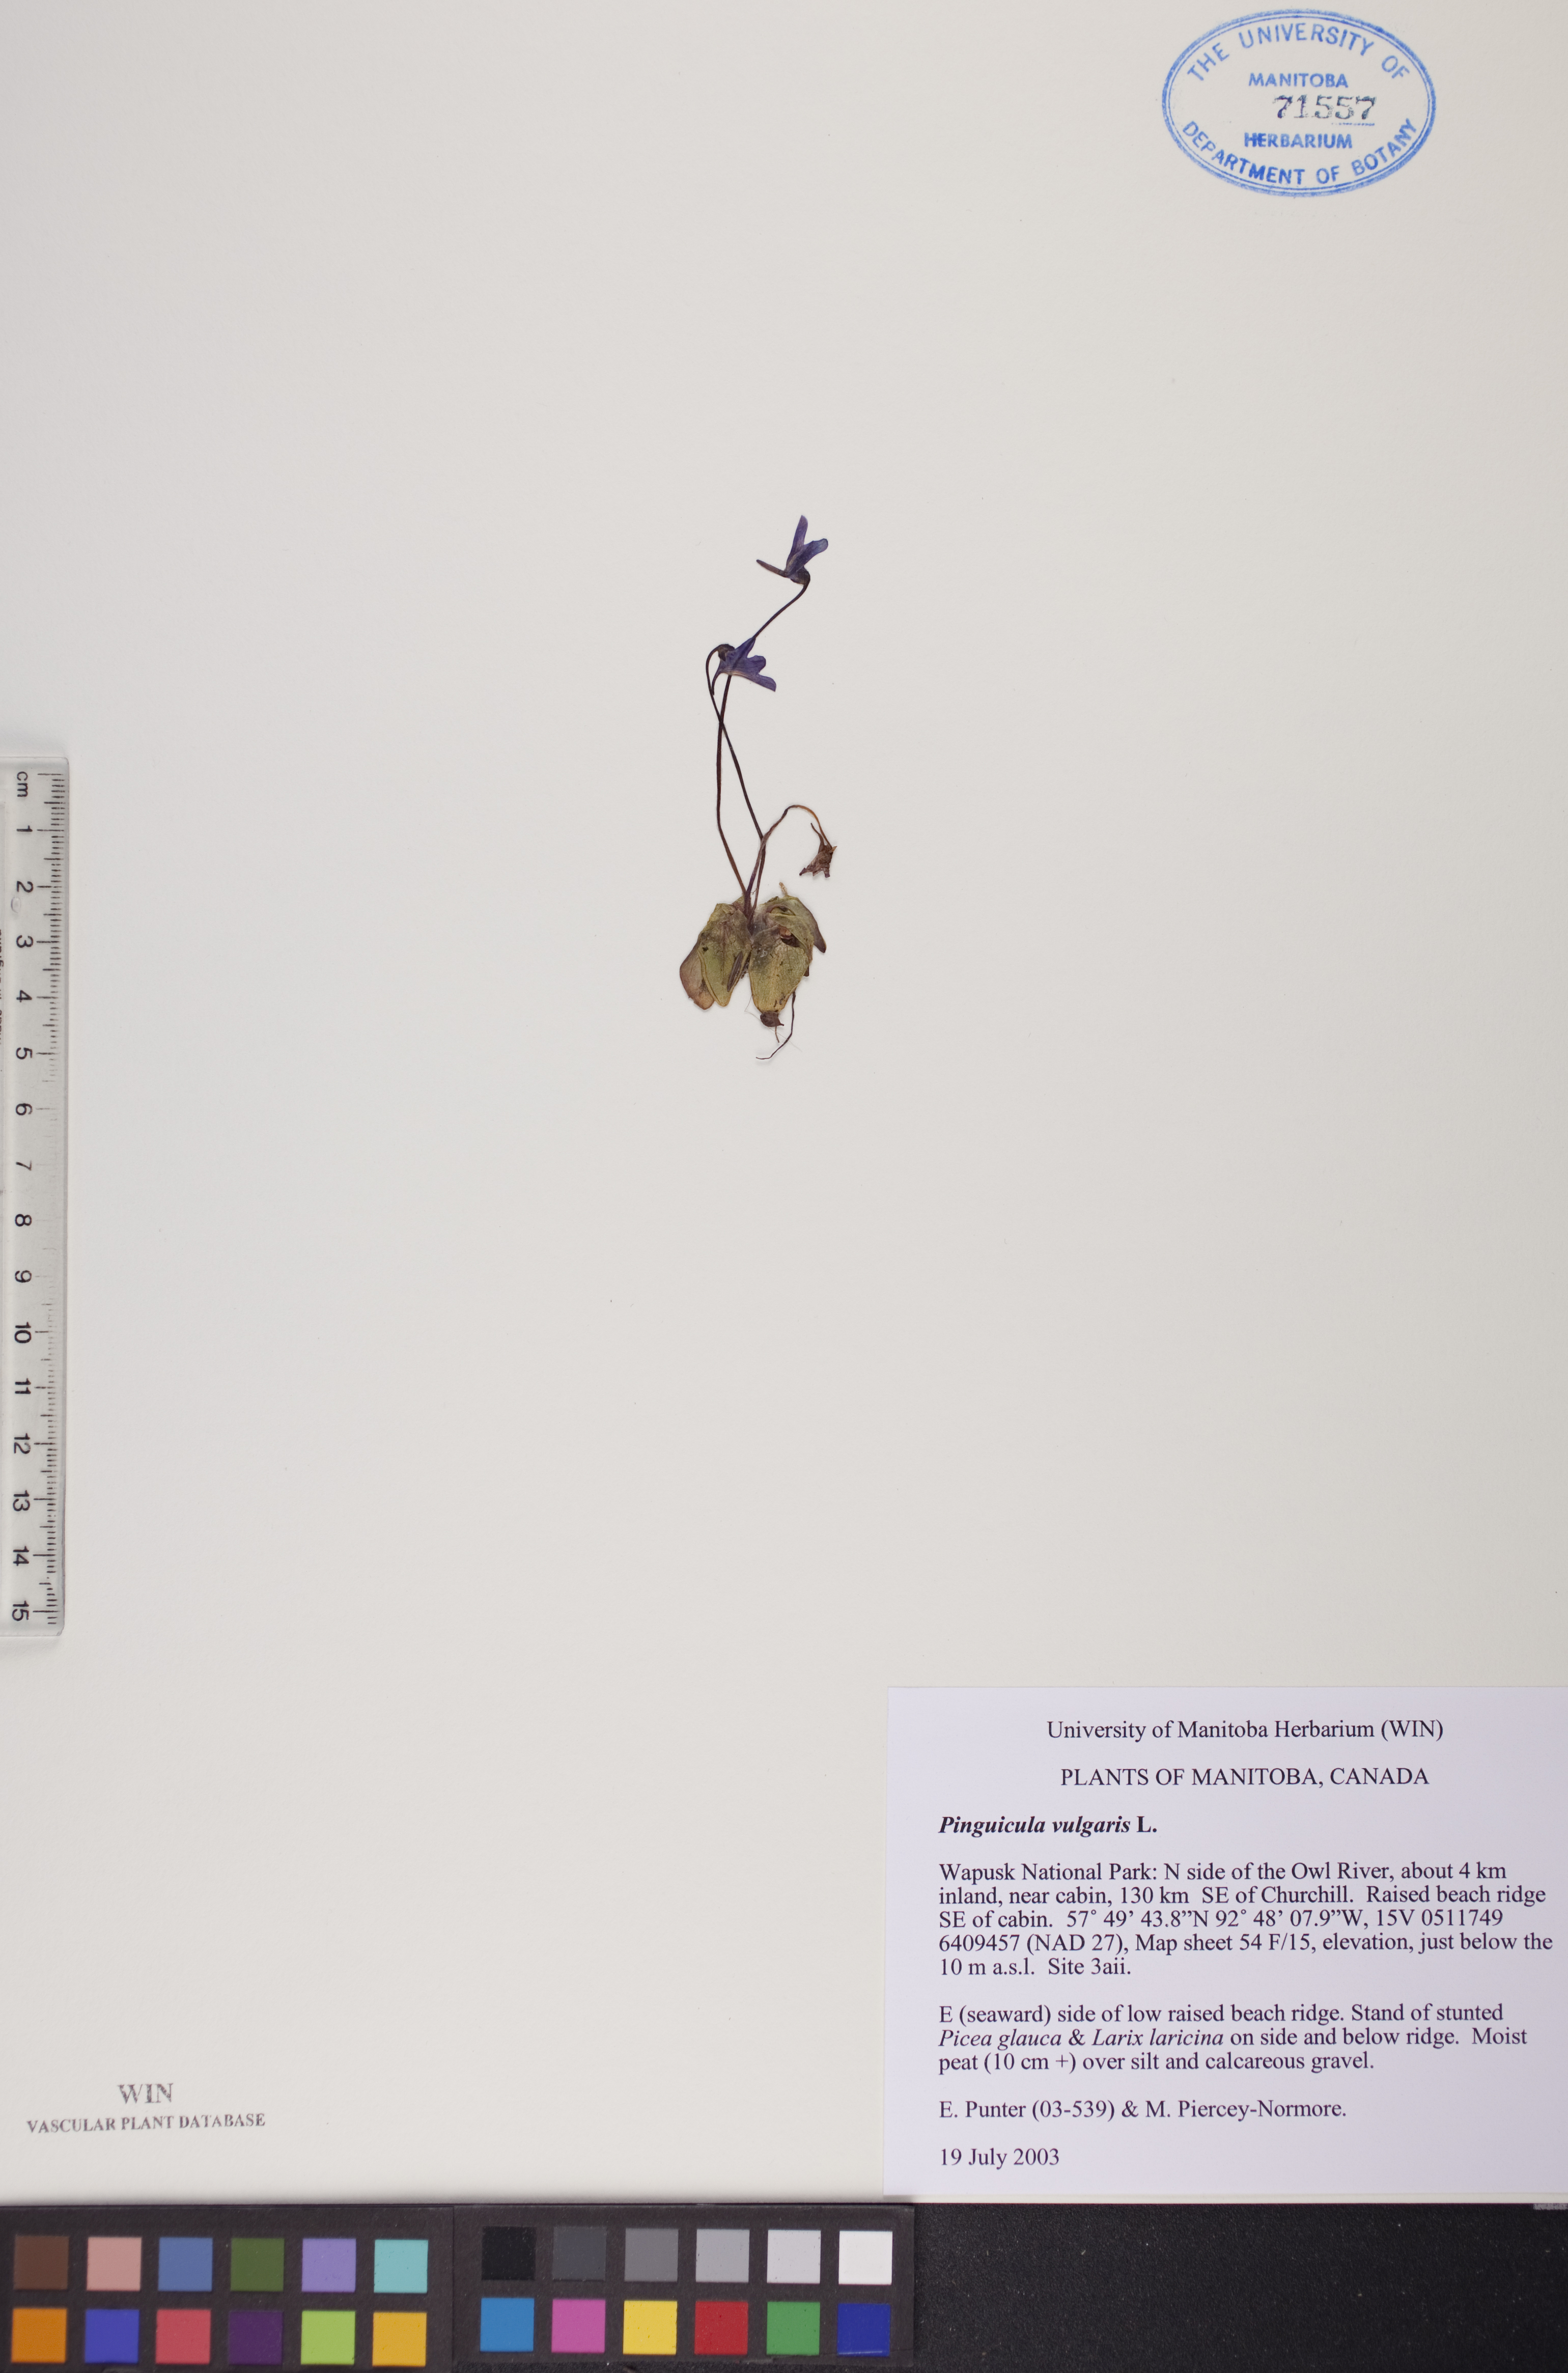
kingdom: Plantae
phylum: Tracheophyta
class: Magnoliopsida
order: Lamiales
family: Lentibulariaceae
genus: Pinguicula
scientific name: Pinguicula vulgaris
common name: Common butterwort
